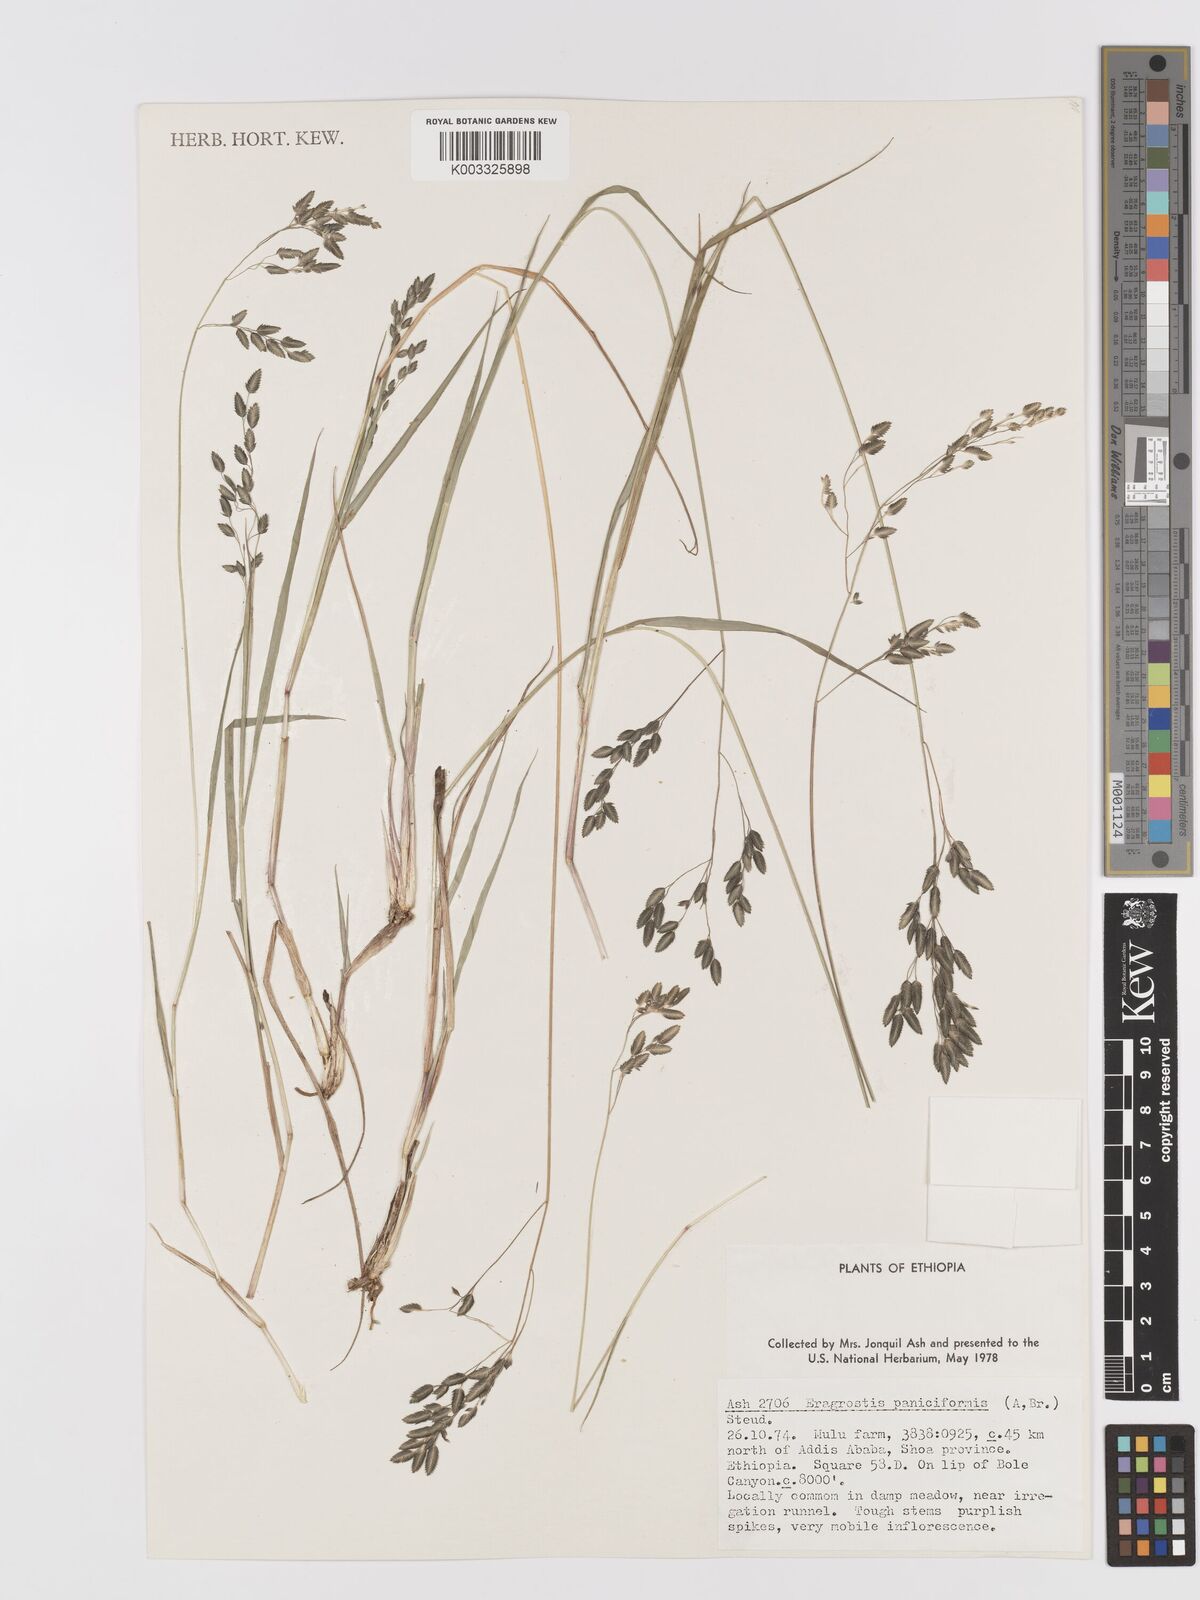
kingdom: Plantae
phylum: Tracheophyta
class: Liliopsida
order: Poales
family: Poaceae
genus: Eragrostis
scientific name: Eragrostis paniciformis
